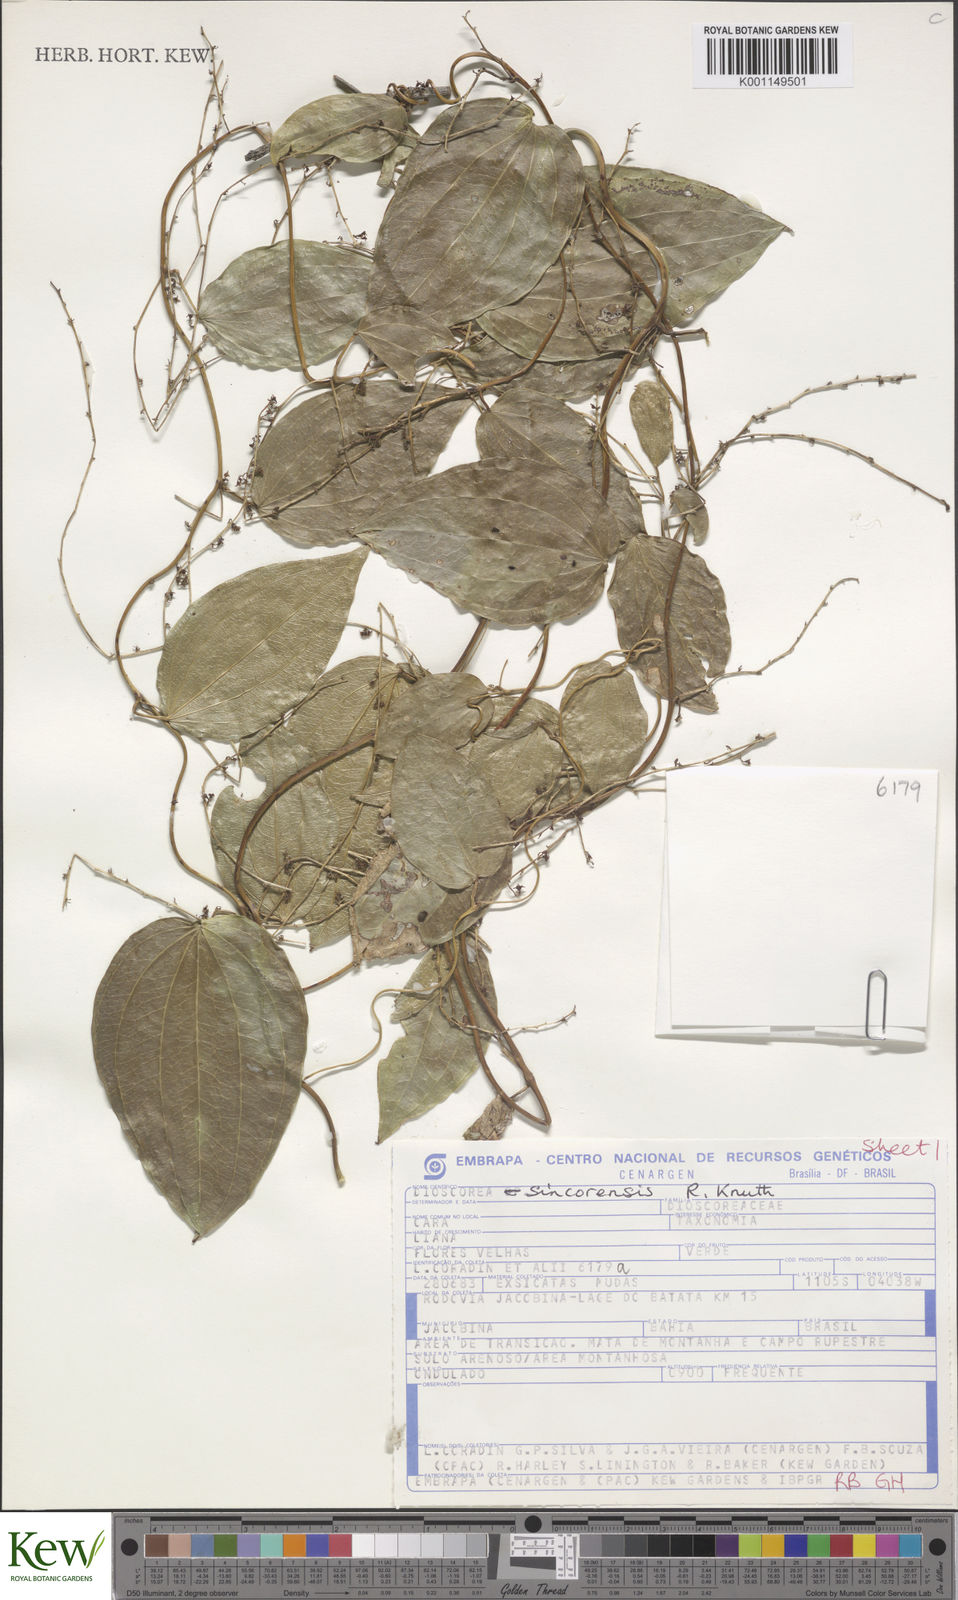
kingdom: Plantae
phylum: Tracheophyta
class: Liliopsida
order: Dioscoreales
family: Dioscoreaceae
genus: Dioscorea
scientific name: Dioscorea sincorensis
